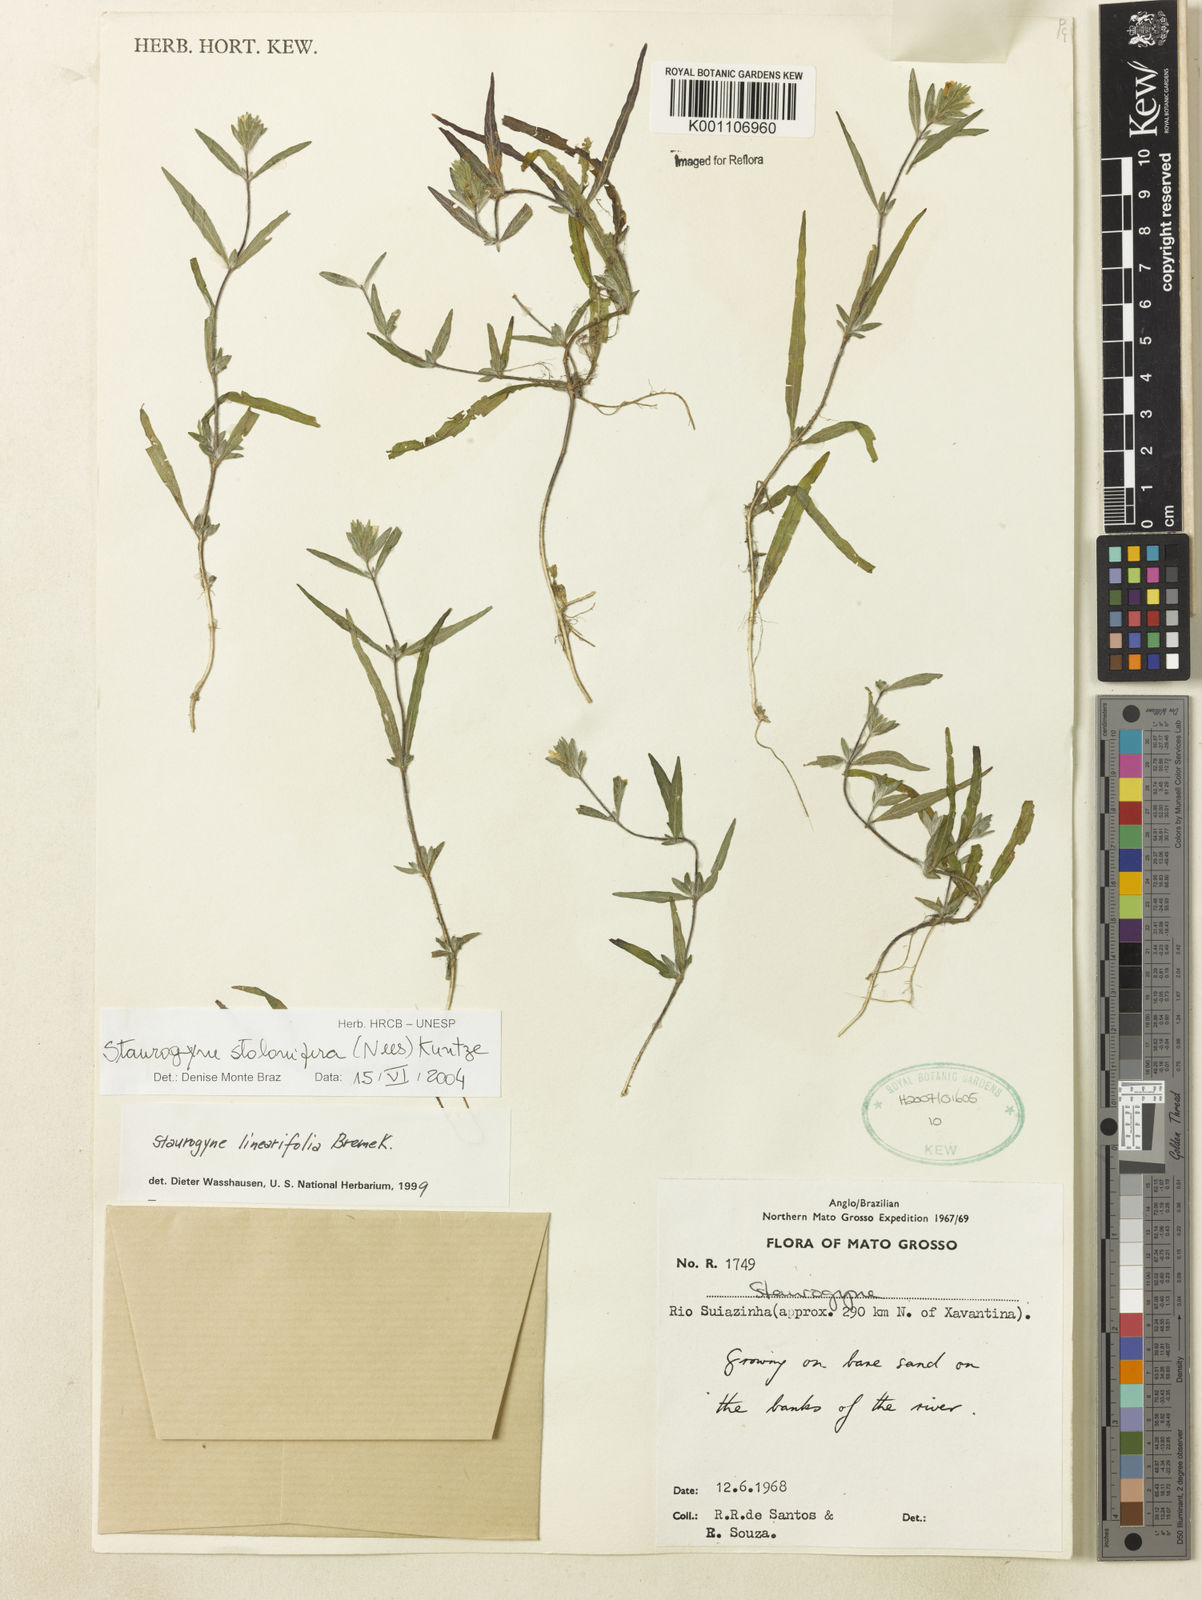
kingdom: Plantae
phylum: Tracheophyta
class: Magnoliopsida
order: Lamiales
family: Acanthaceae
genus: Staurogyne
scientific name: Staurogyne stolonifera
